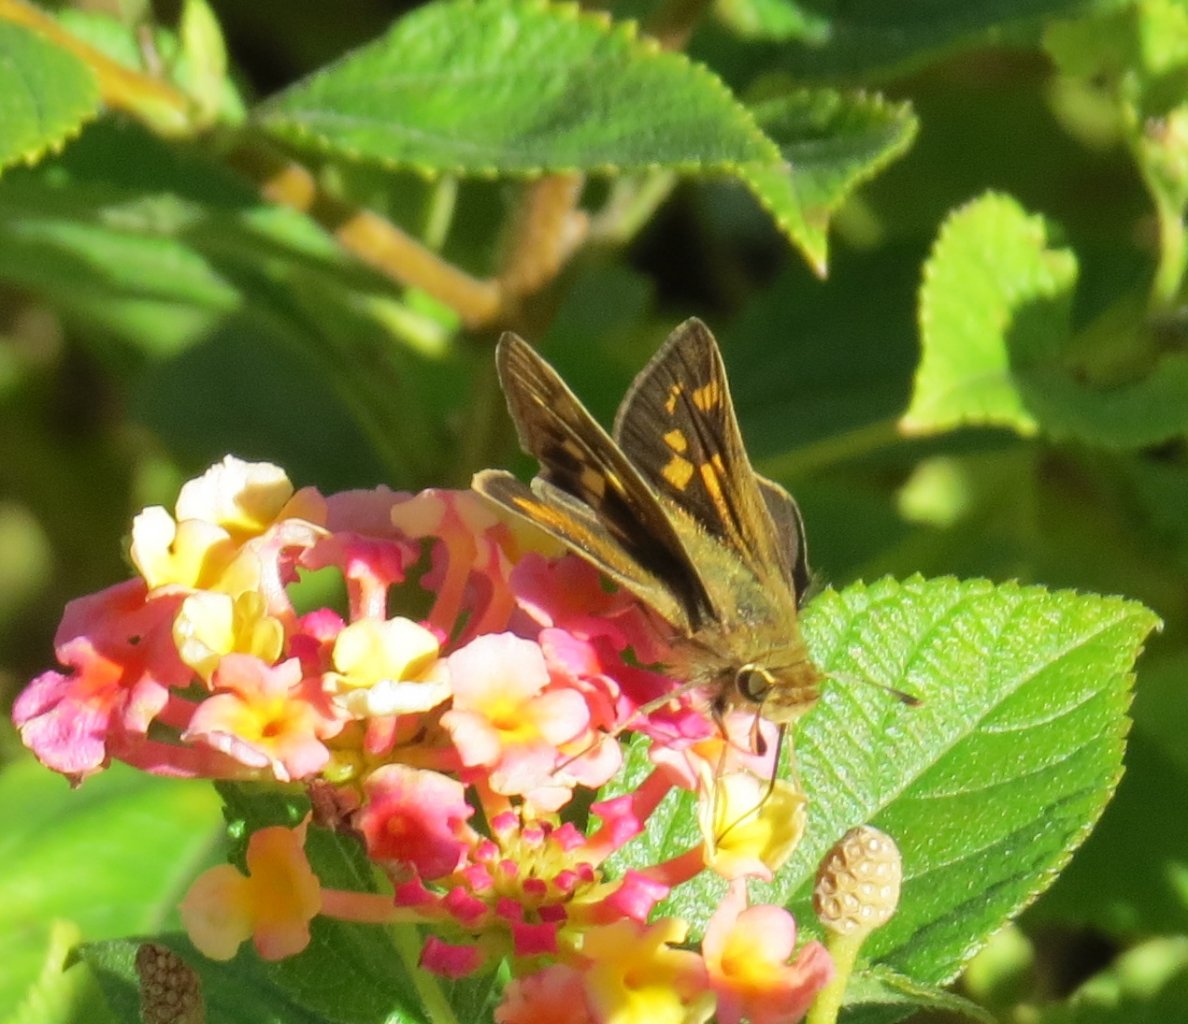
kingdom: Animalia
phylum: Arthropoda
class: Insecta
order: Lepidoptera
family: Hesperiidae
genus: Hylephila
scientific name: Hylephila phyleus
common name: Fiery Skipper
